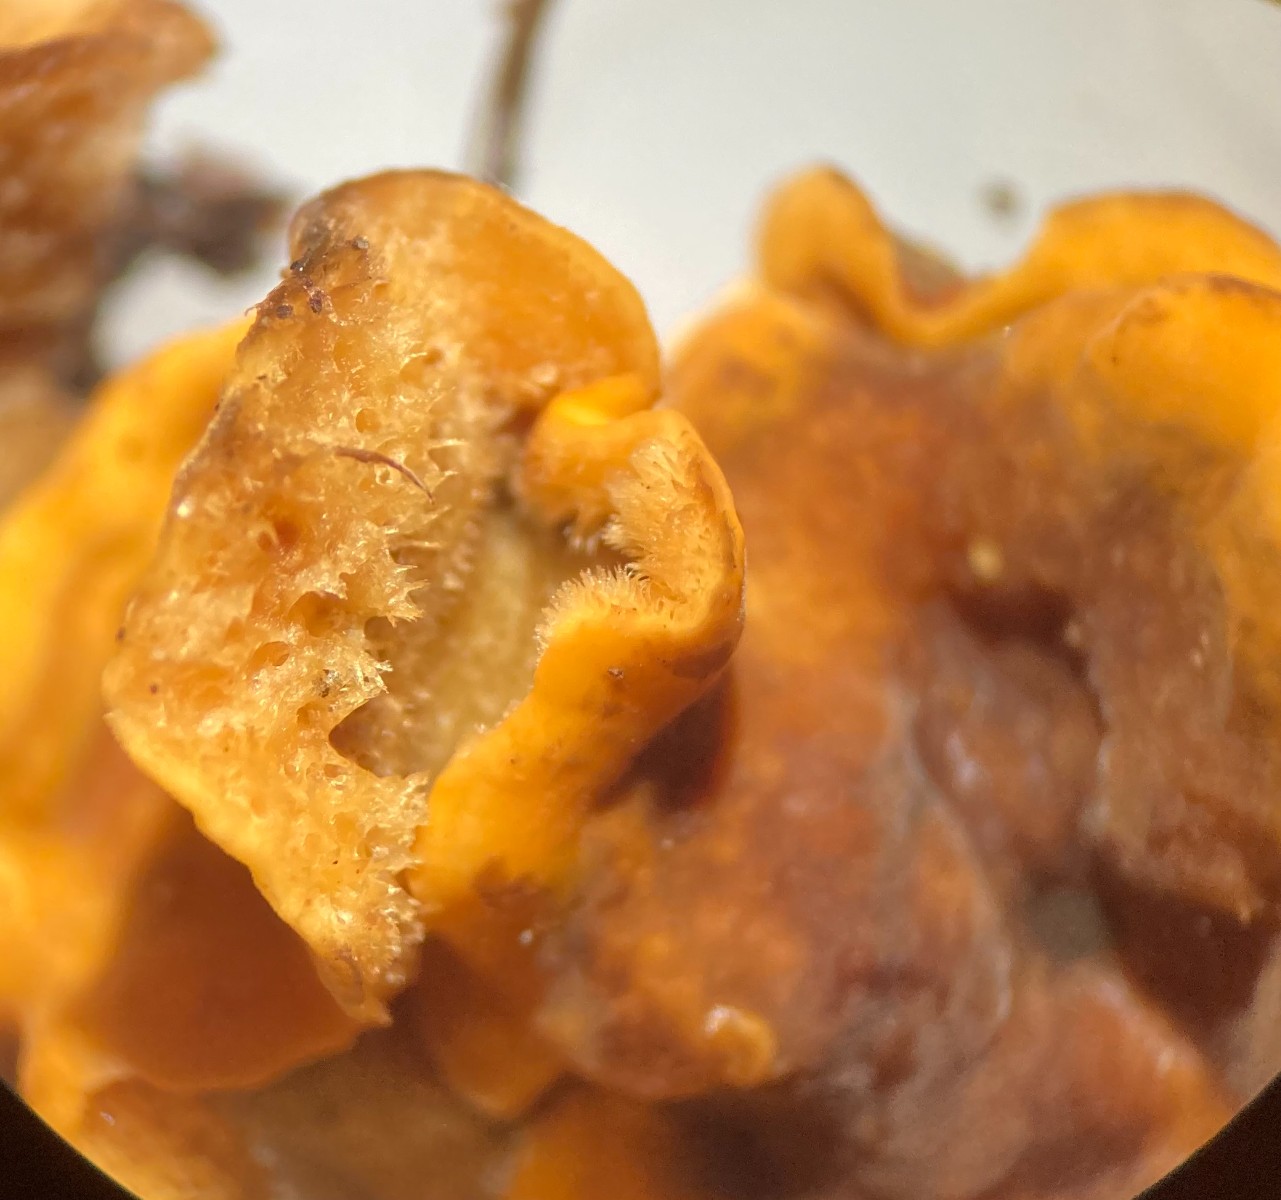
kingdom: Fungi
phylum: Basidiomycota
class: Agaricomycetes
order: Russulales
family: Stereaceae
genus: Stereum
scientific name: Stereum hirsutum
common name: håret lædersvamp
